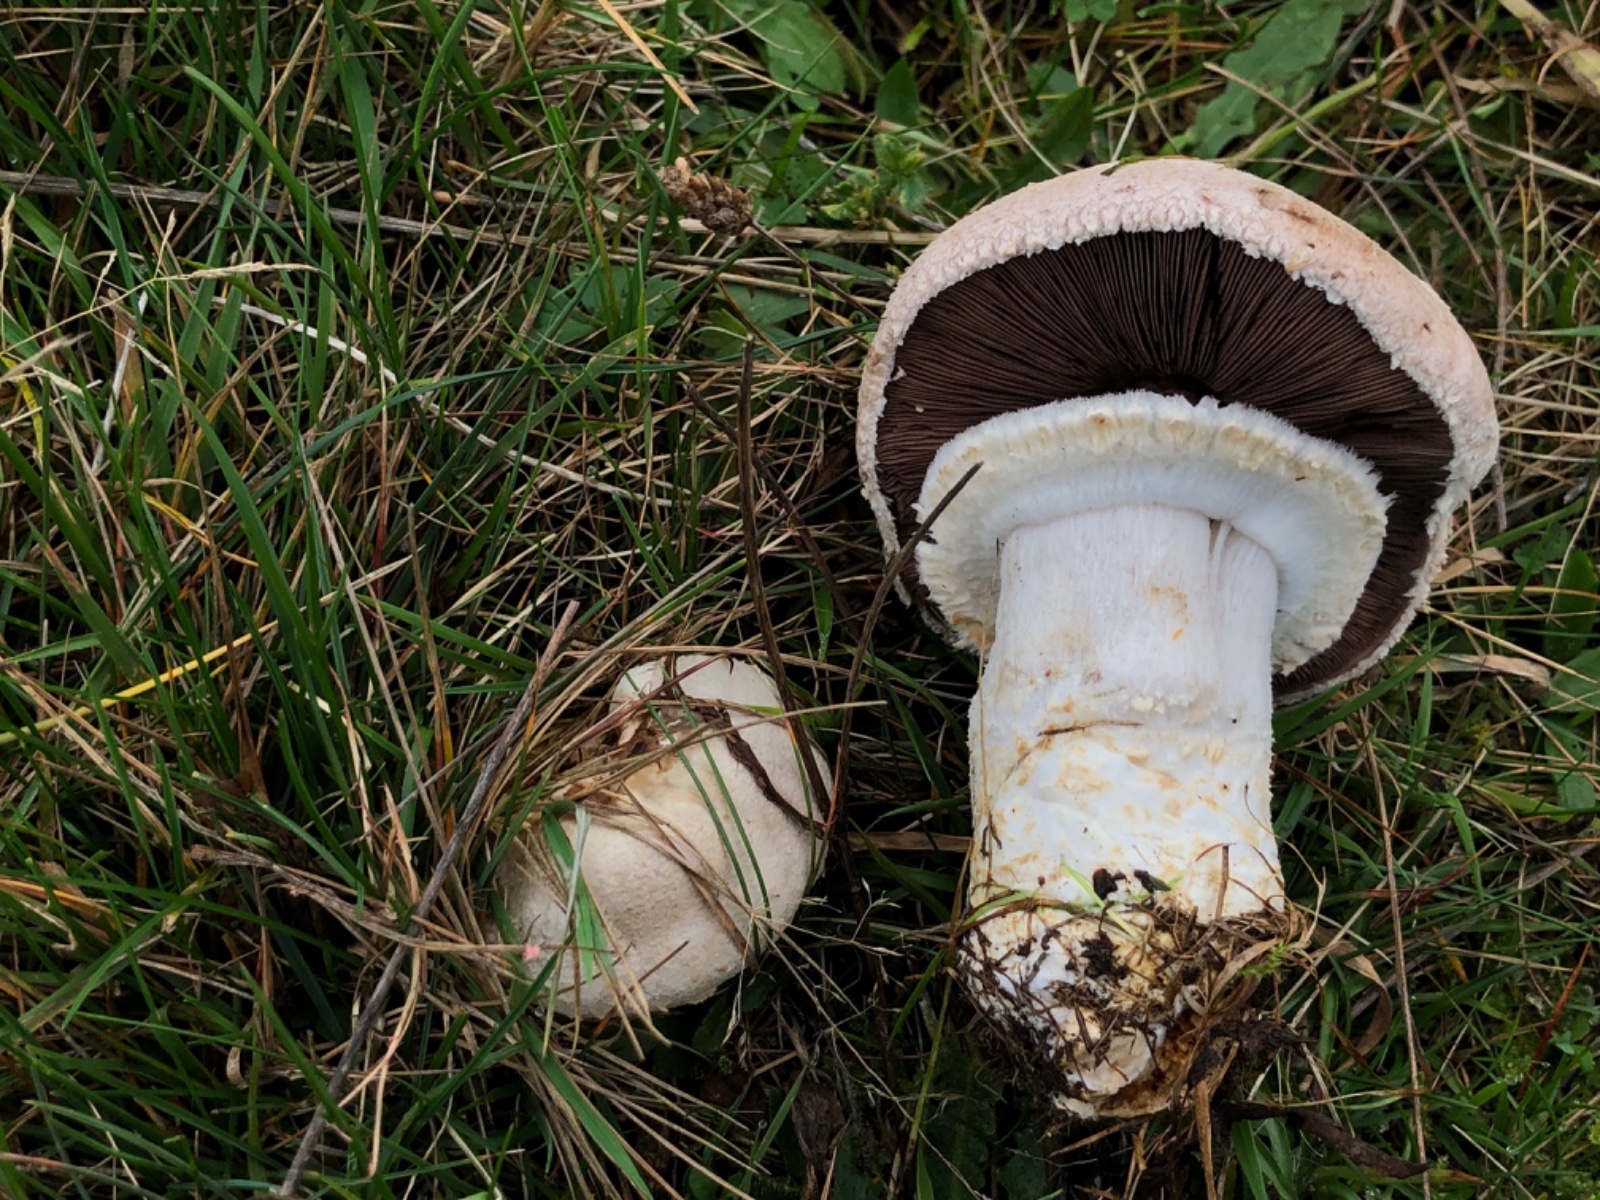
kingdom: Fungi
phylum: Basidiomycota
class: Agaricomycetes
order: Agaricales
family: Agaricaceae
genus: Agaricus
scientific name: Agaricus
